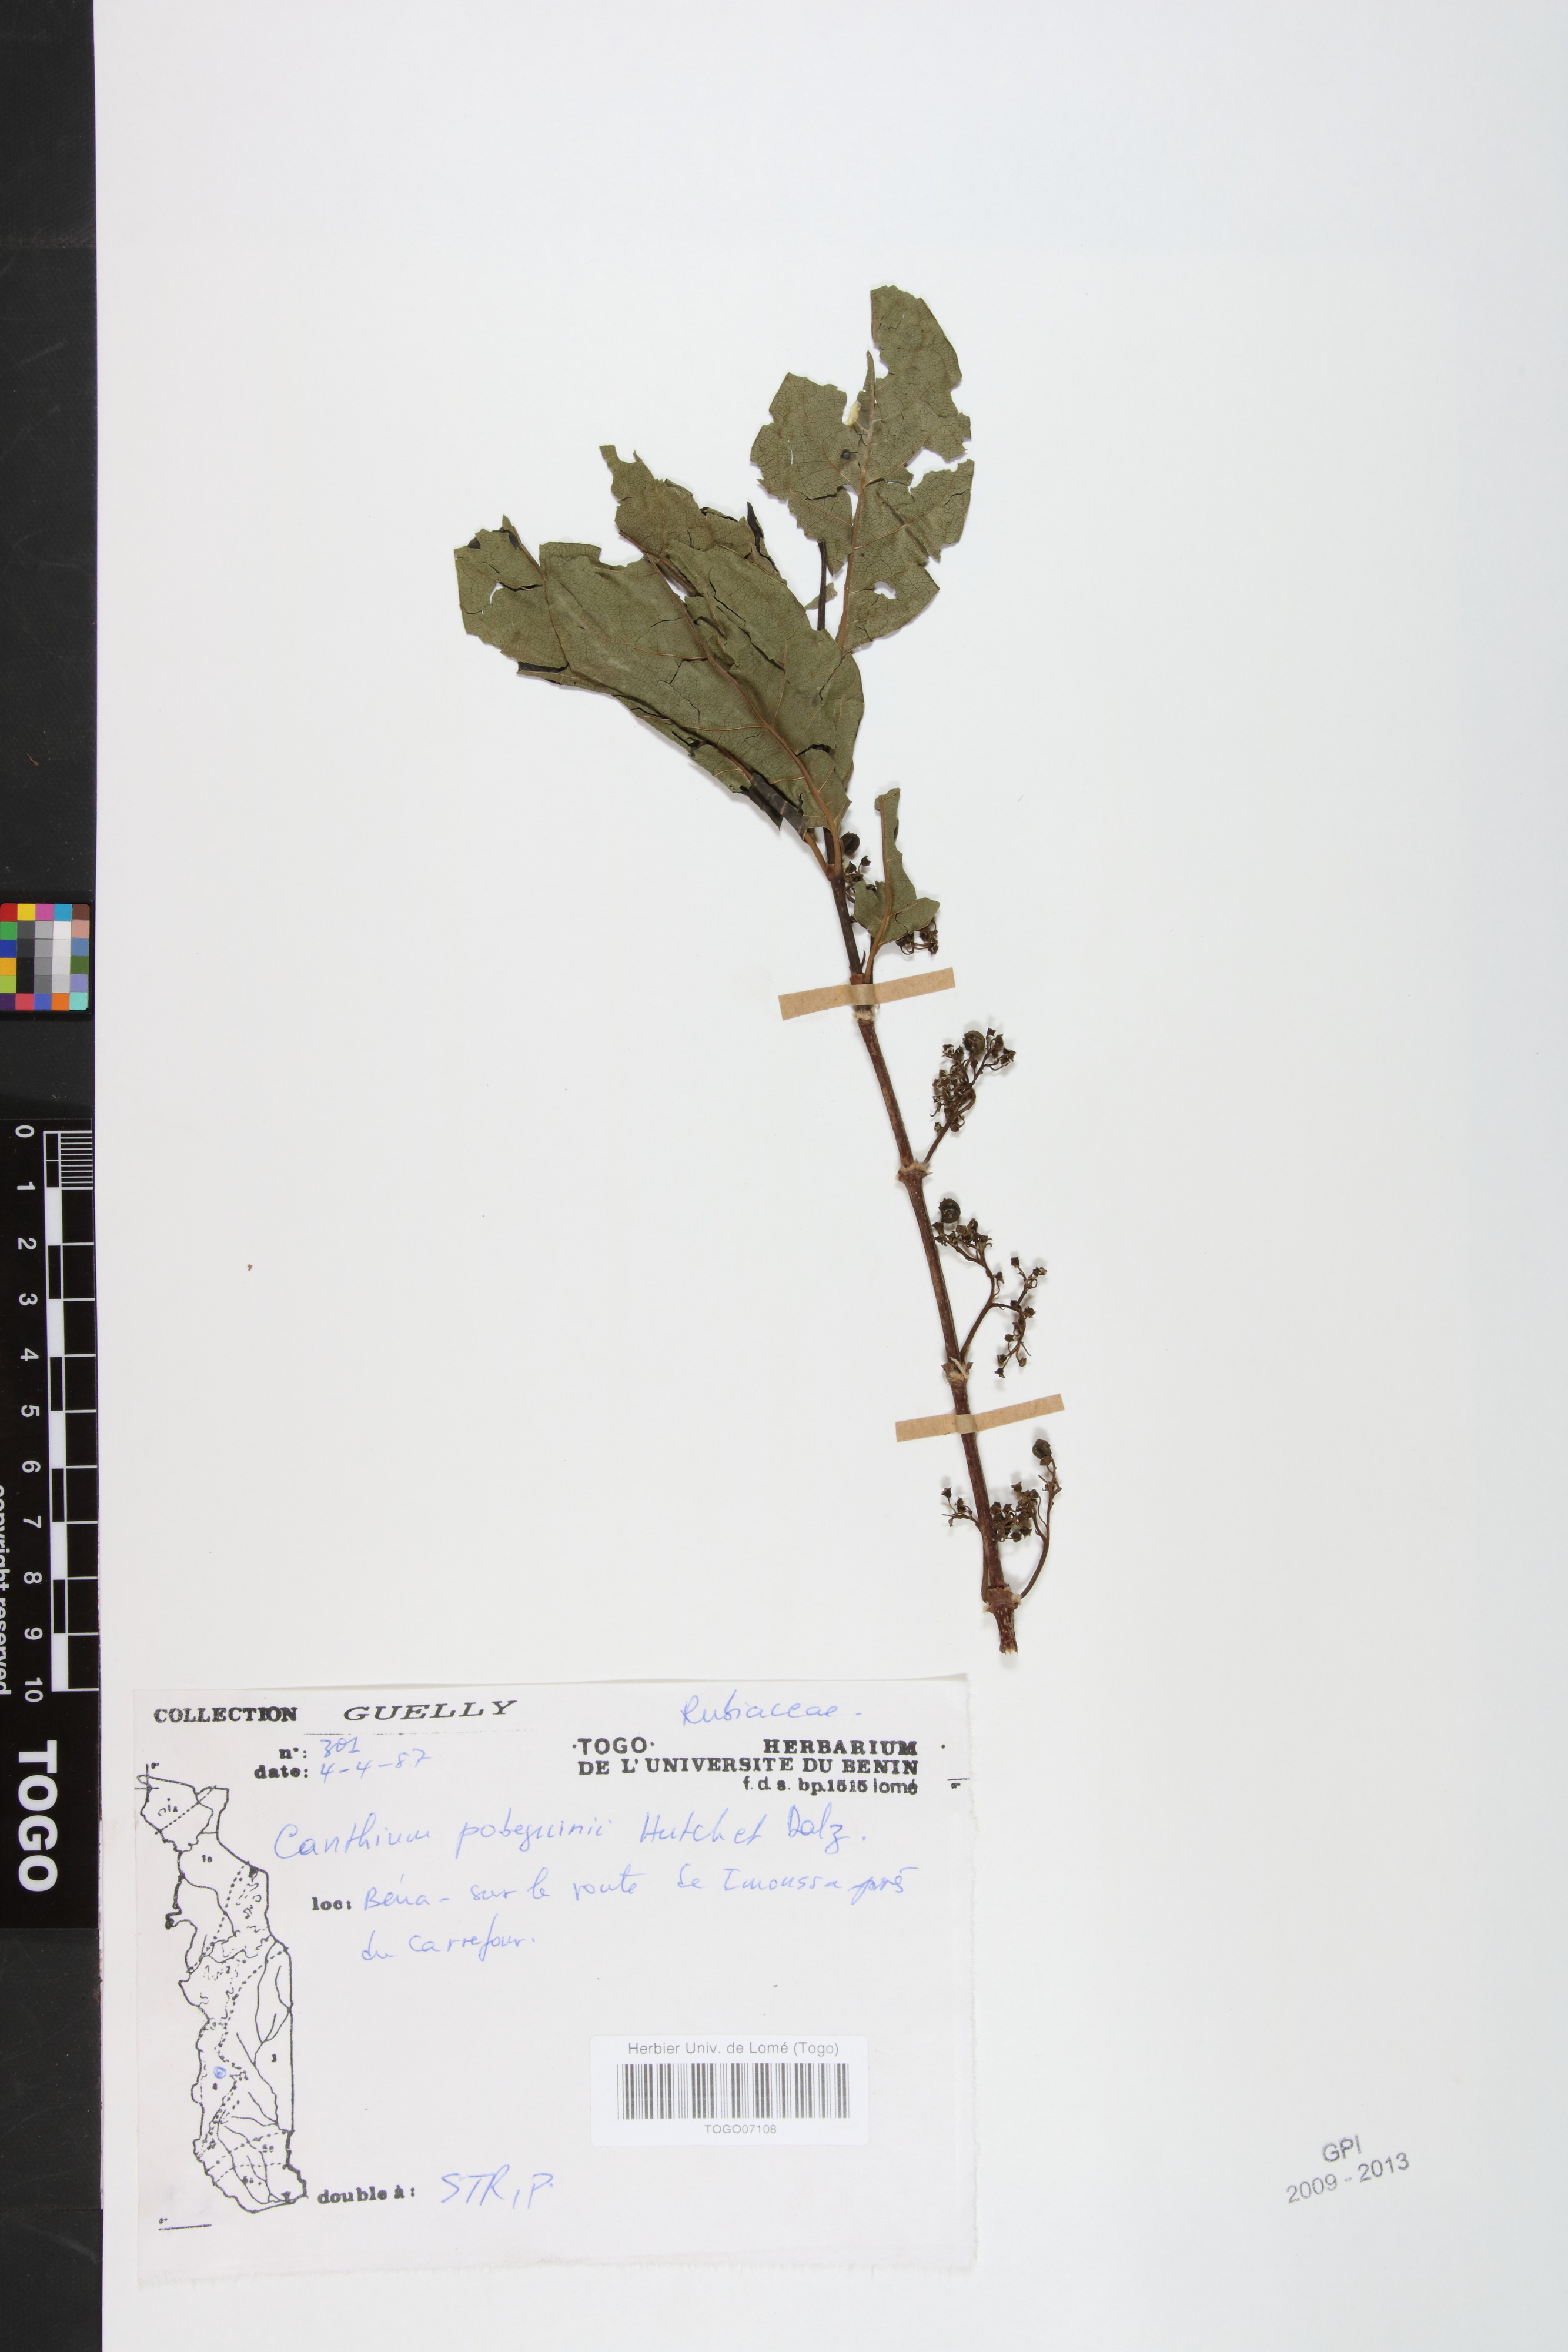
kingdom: Plantae
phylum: Tracheophyta
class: Magnoliopsida
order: Gentianales
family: Rubiaceae
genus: Multidentia
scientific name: Multidentia pobeguinii
